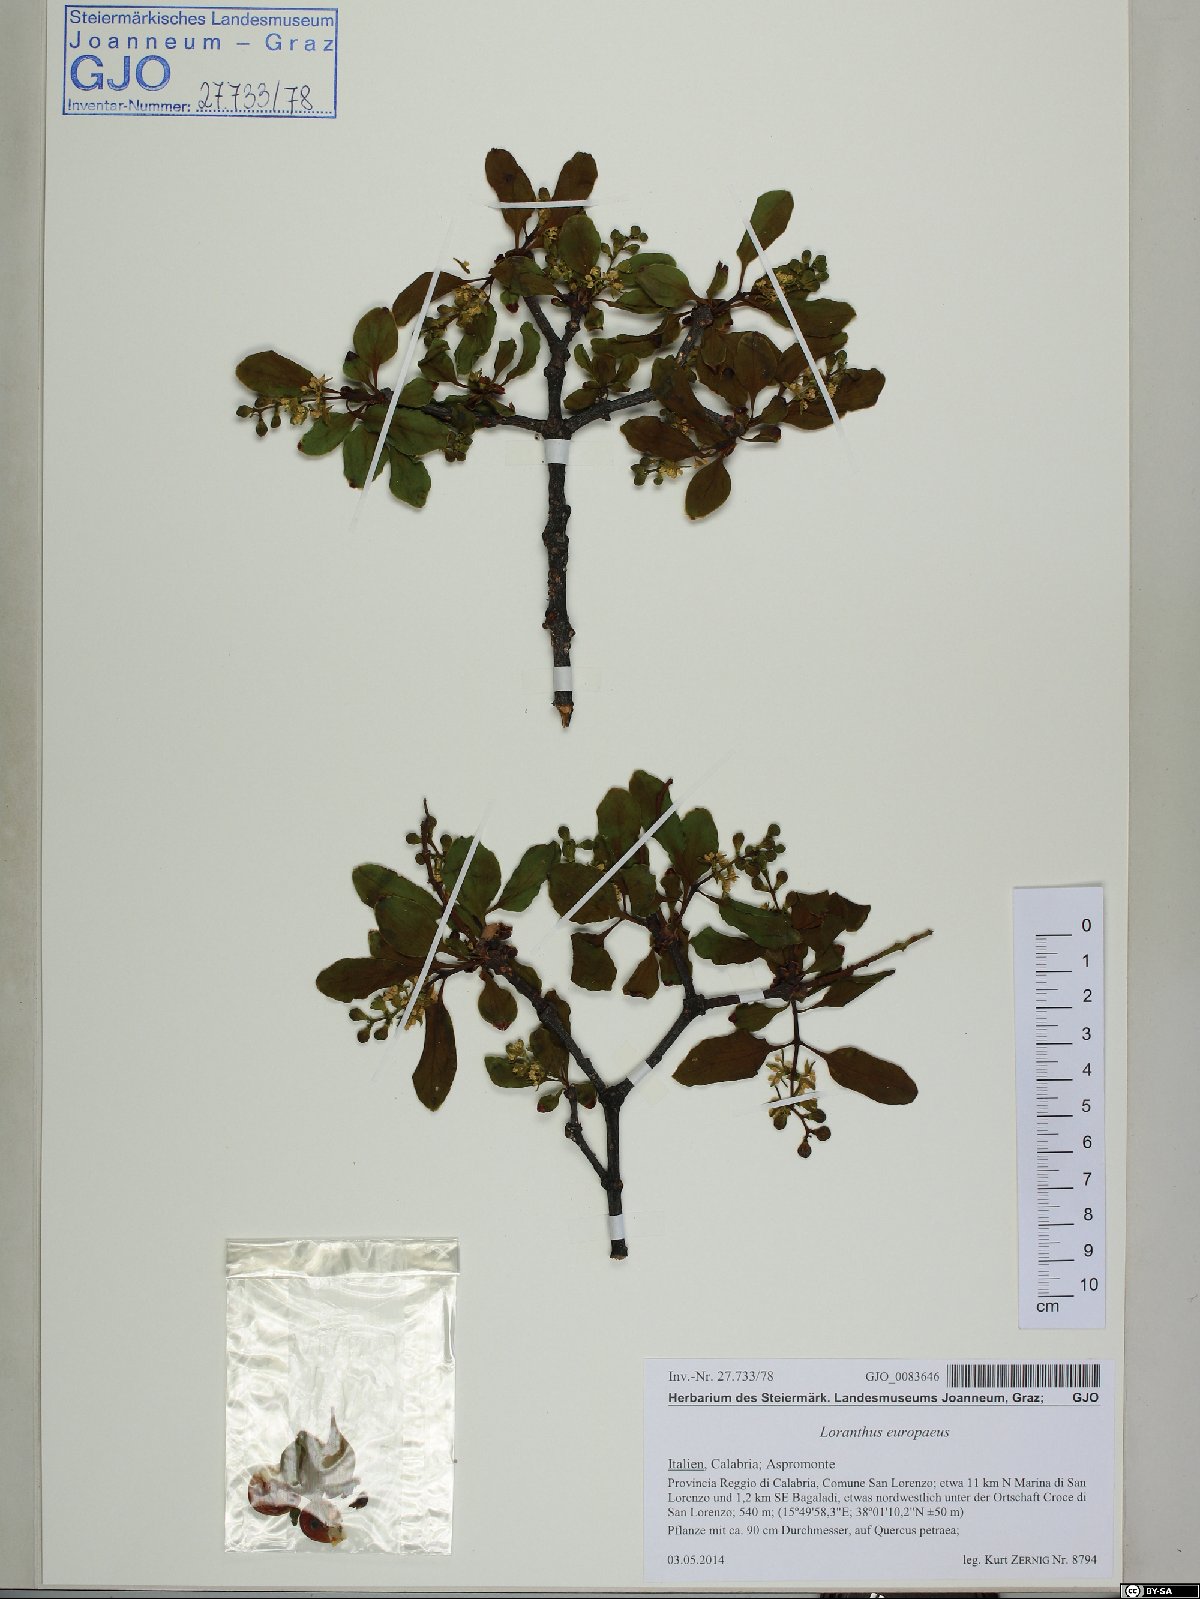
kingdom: Plantae
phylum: Tracheophyta
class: Magnoliopsida
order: Santalales
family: Loranthaceae
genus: Loranthus
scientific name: Loranthus europaeus
